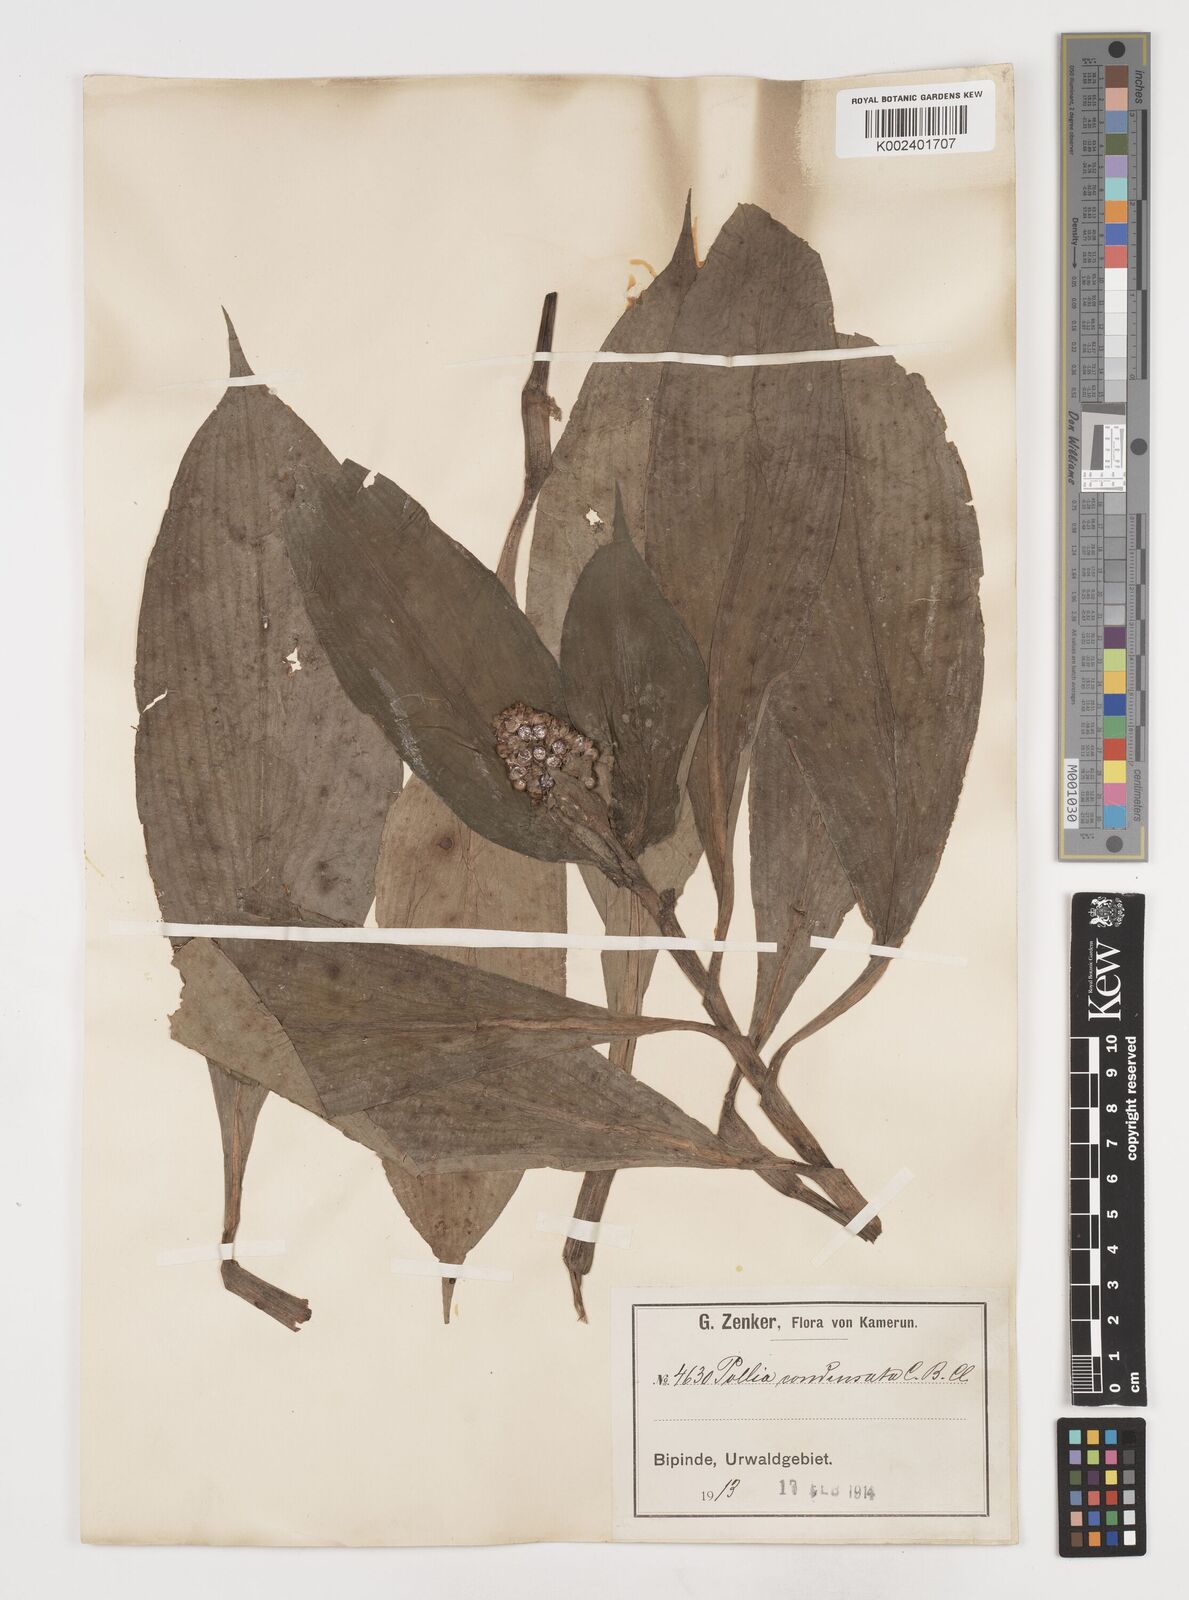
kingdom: Plantae
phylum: Tracheophyta
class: Liliopsida
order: Commelinales
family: Commelinaceae
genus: Pollia
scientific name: Pollia condensata
